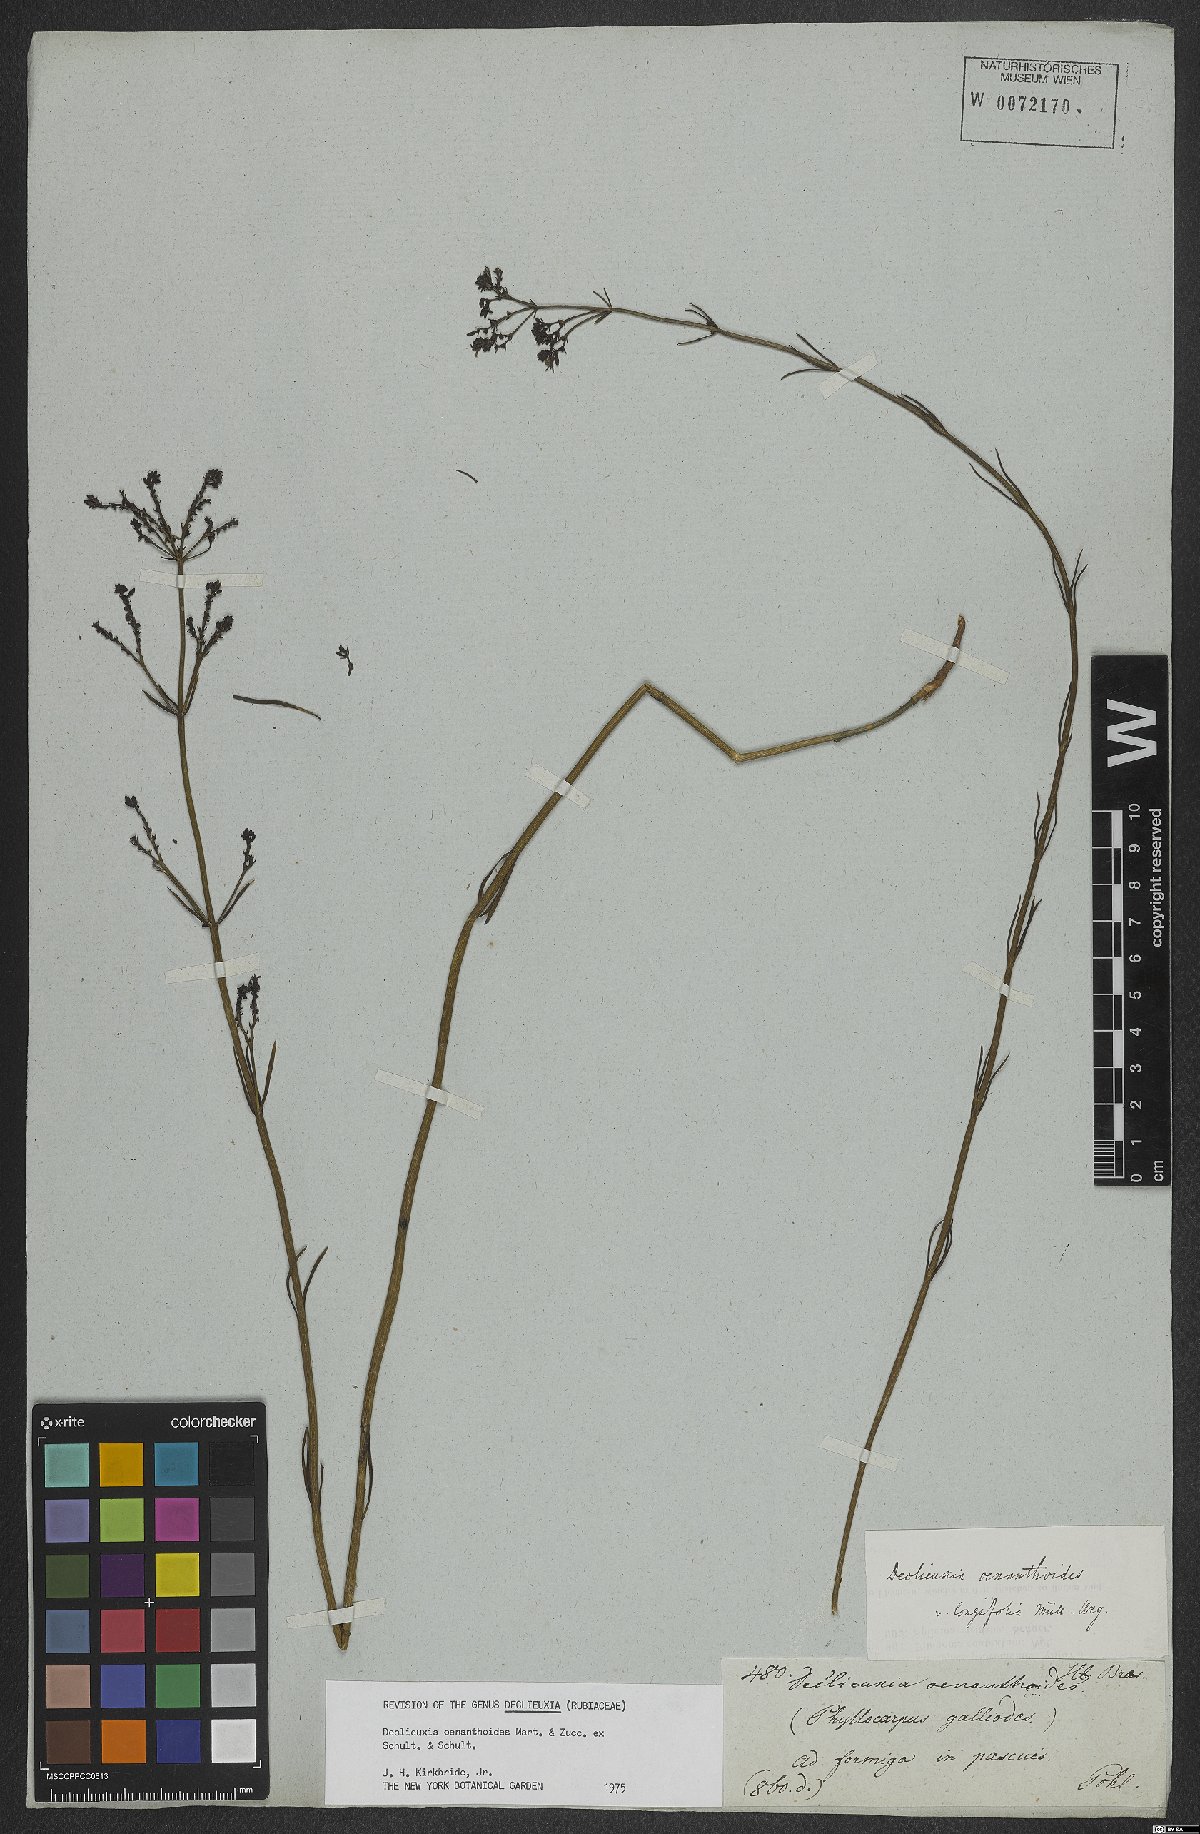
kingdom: Plantae
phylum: Tracheophyta
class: Magnoliopsida
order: Gentianales
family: Rubiaceae
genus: Declieuxia
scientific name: Declieuxia oenanthoides
